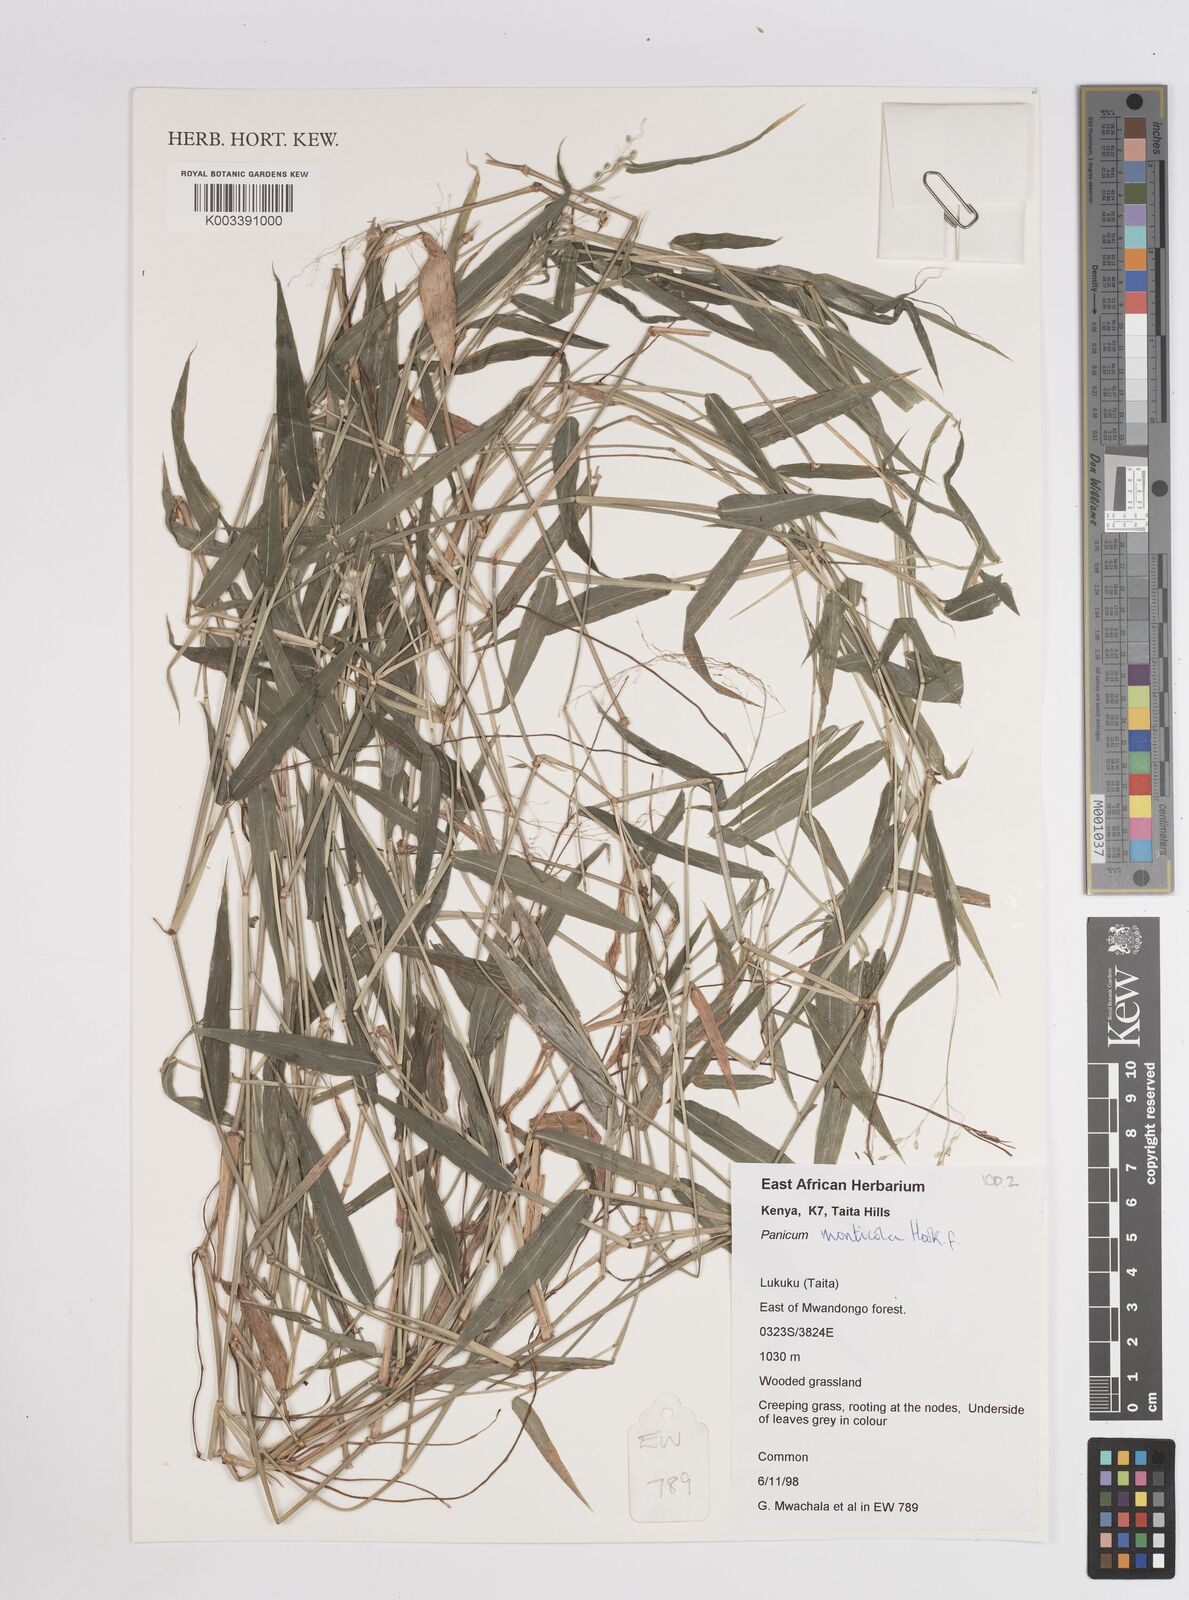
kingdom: Plantae
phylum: Tracheophyta
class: Liliopsida
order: Poales
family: Poaceae
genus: Panicum
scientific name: Panicum monticola
